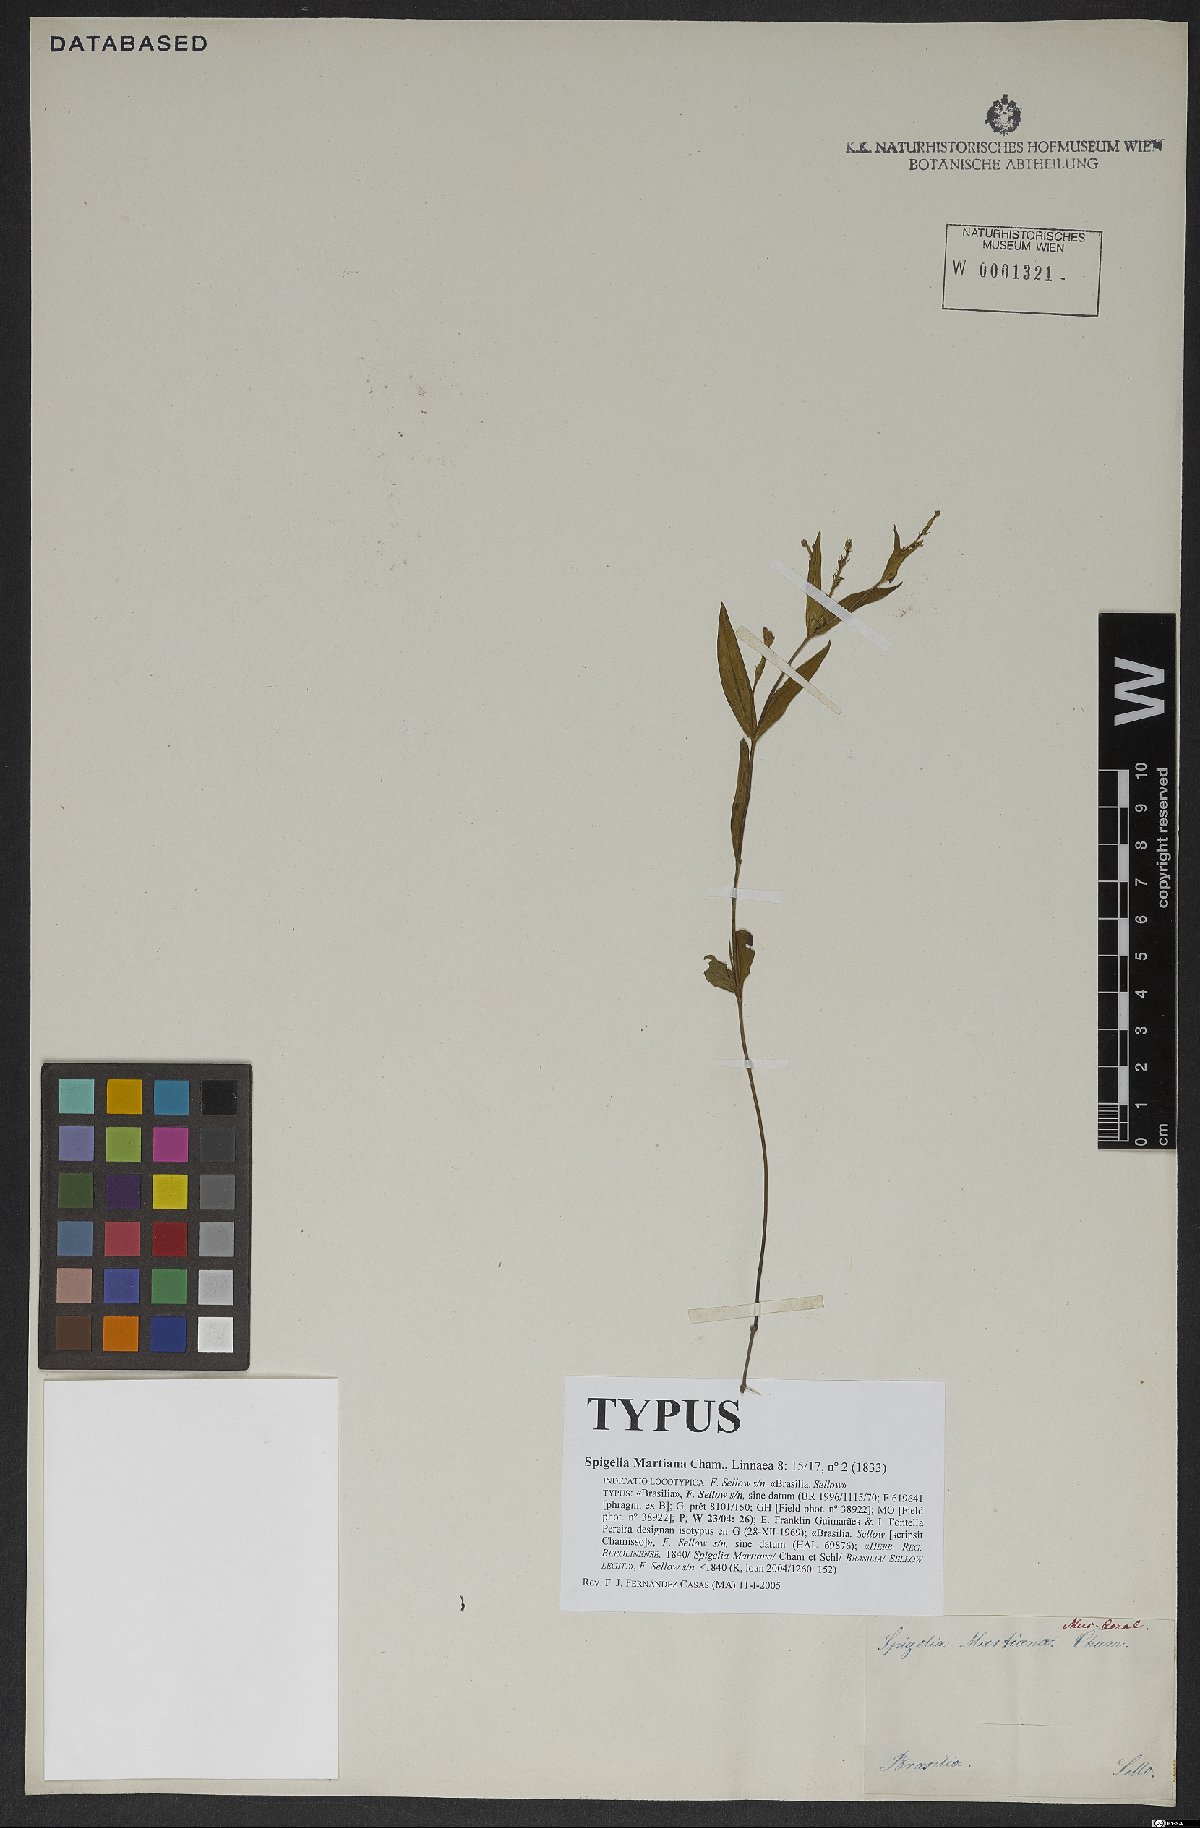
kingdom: Plantae
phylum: Tracheophyta
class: Magnoliopsida
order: Gentianales
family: Loganiaceae
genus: Spigelia
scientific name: Spigelia martiana
